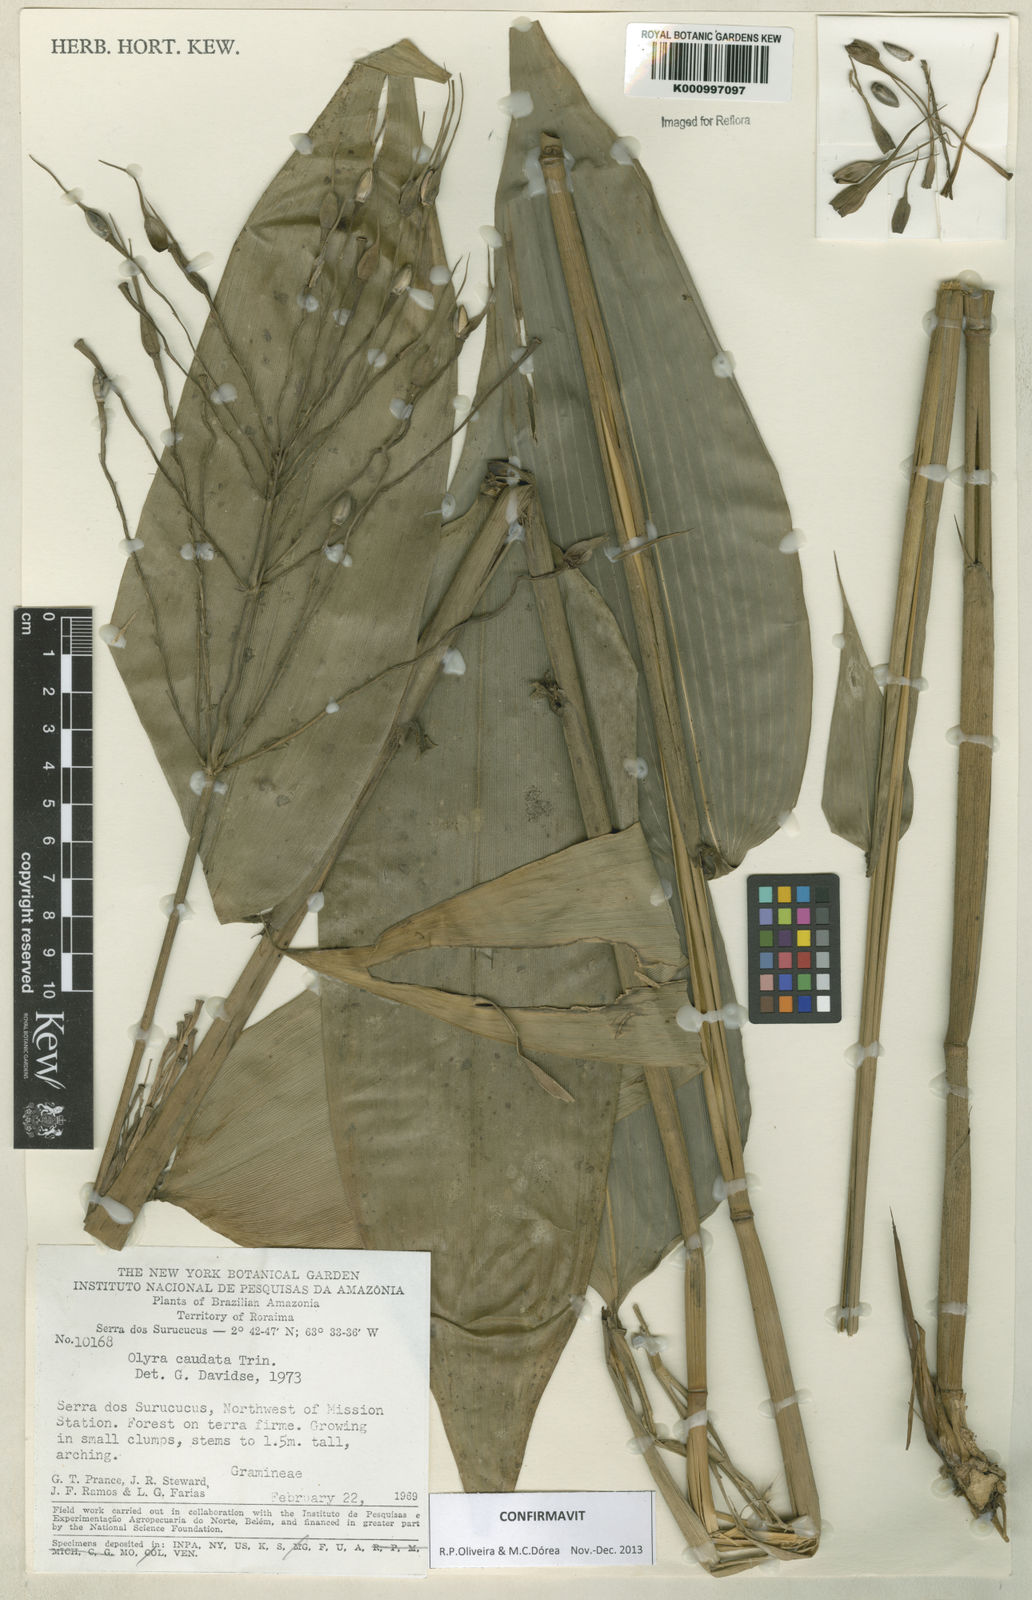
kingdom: Plantae
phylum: Tracheophyta
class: Liliopsida
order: Poales
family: Poaceae
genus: Olyra
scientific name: Olyra caudata
